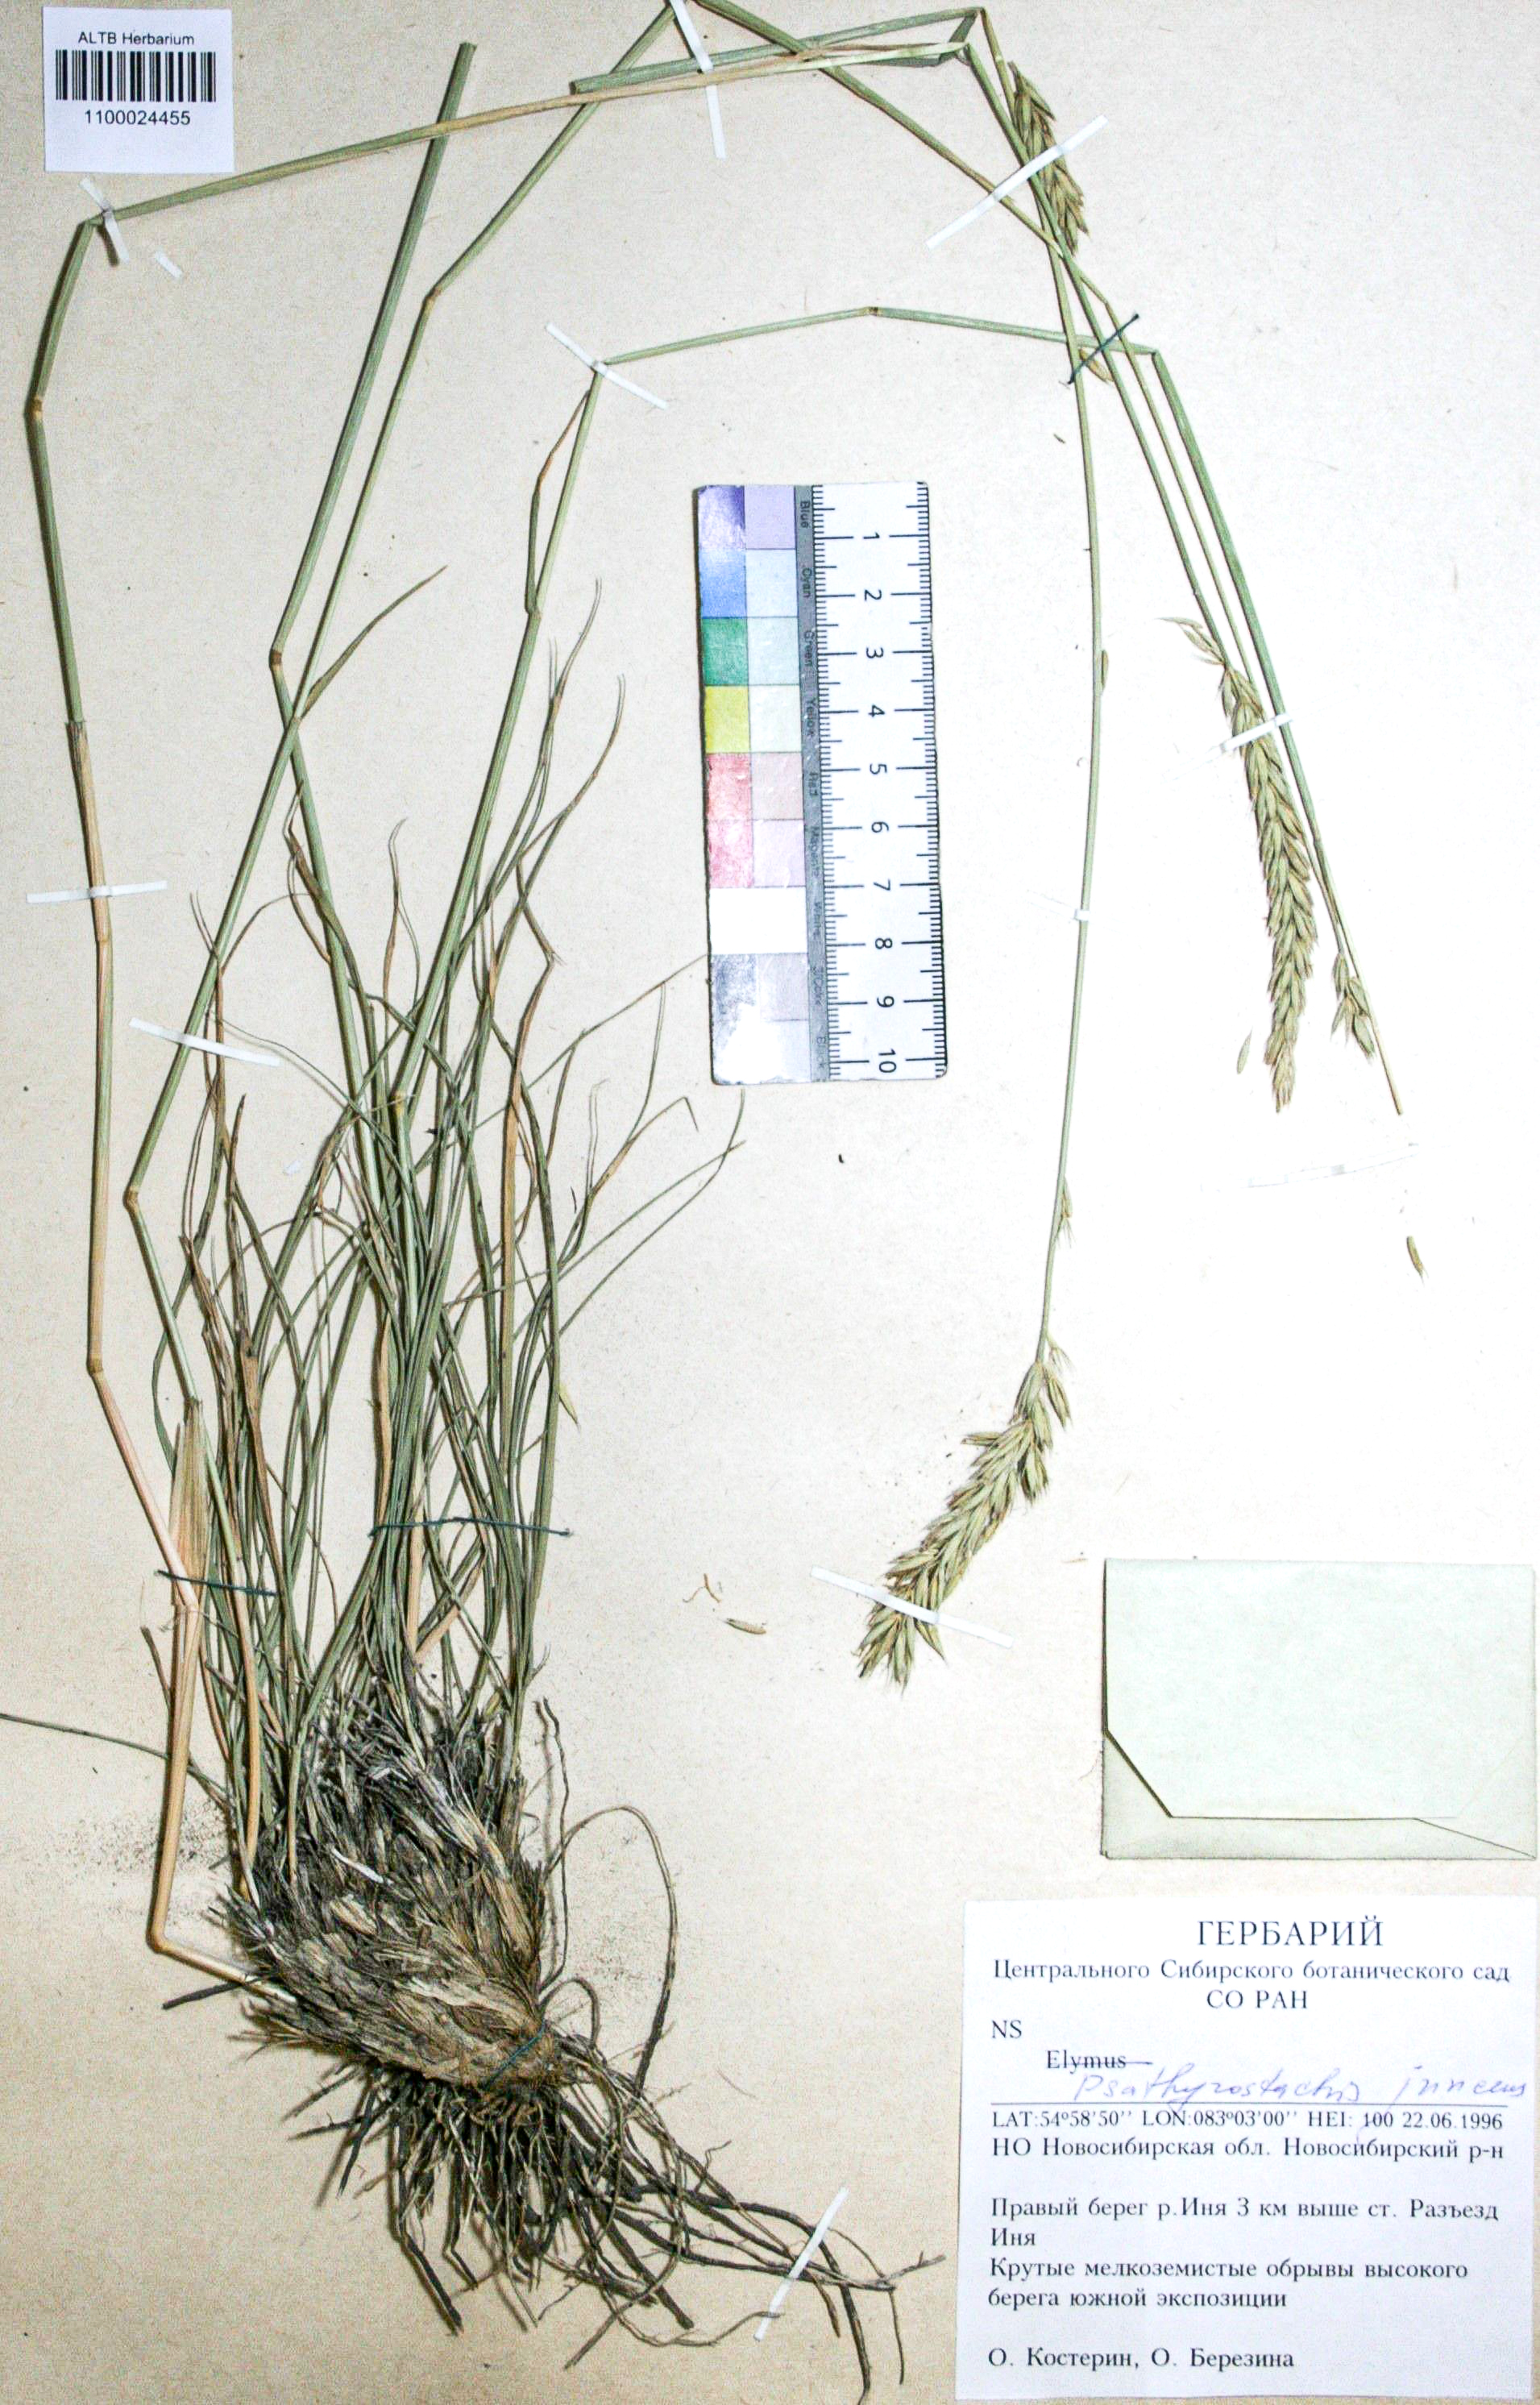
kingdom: Plantae
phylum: Tracheophyta
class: Liliopsida
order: Poales
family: Poaceae
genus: Psathyrostachys
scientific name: Psathyrostachys juncea
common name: Russian wildrye
